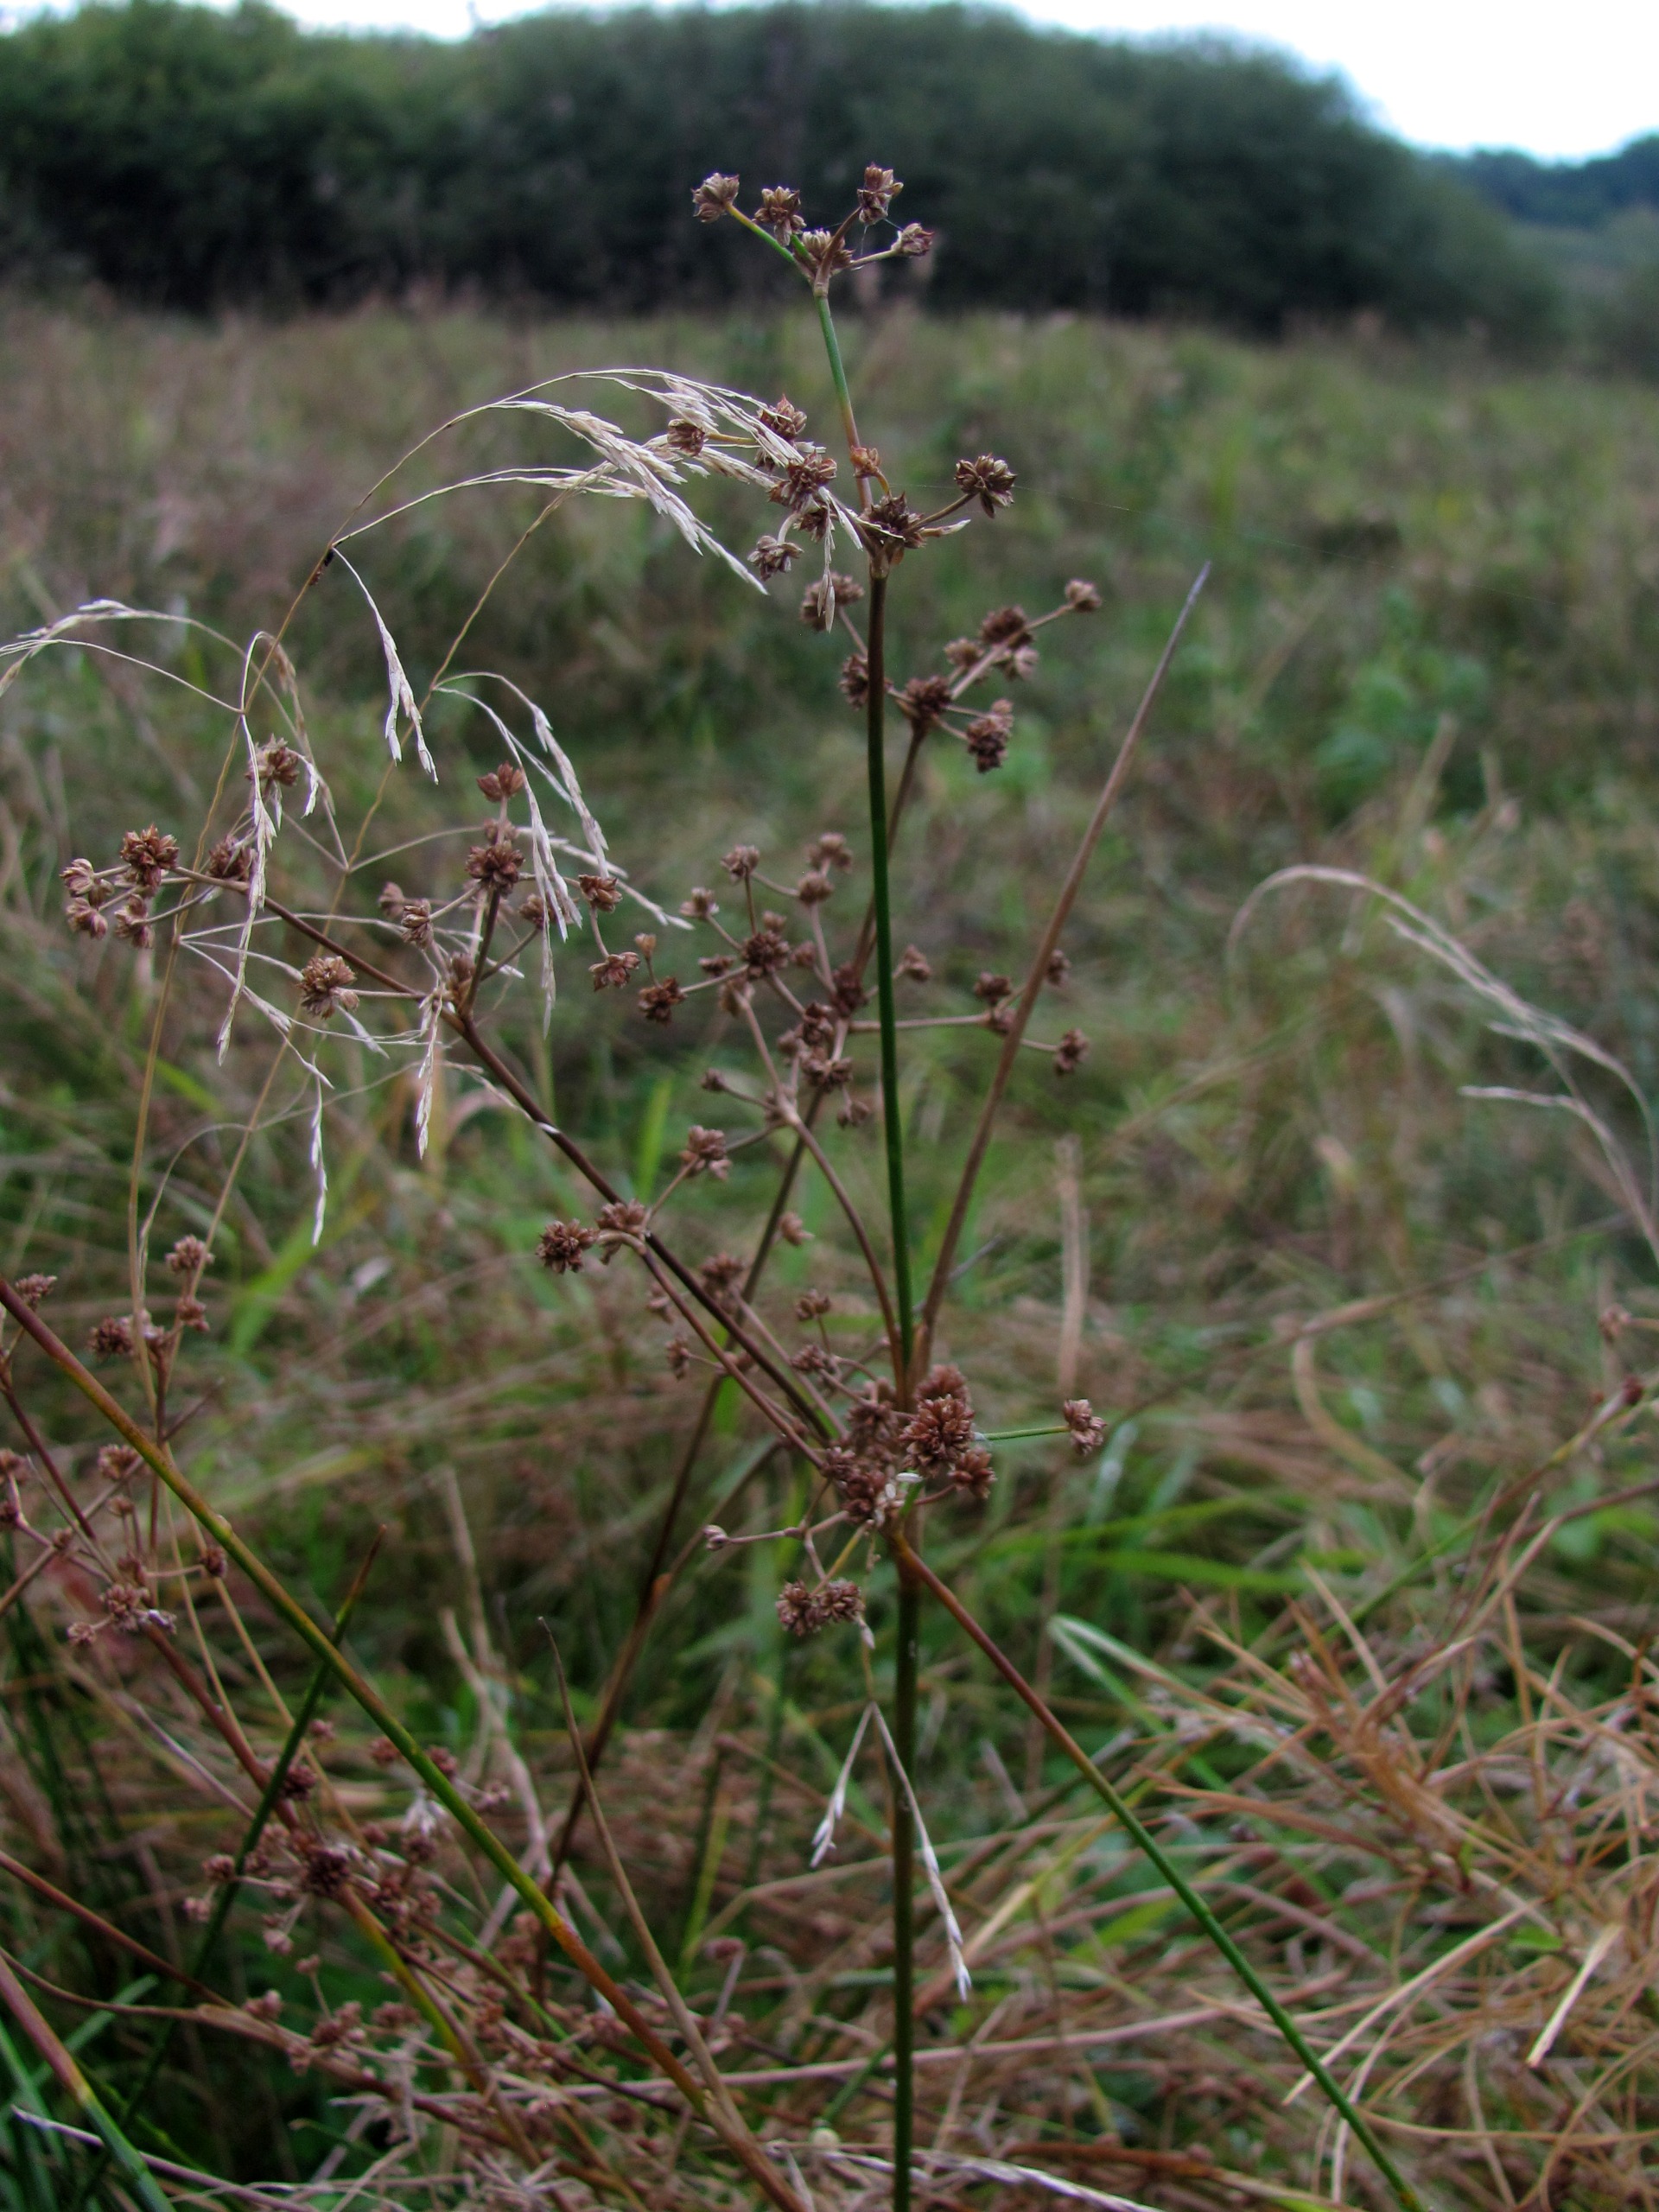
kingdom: Plantae
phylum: Tracheophyta
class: Liliopsida
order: Poales
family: Juncaceae
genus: Juncus
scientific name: Juncus subnodulosus
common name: Butblomstret siv
